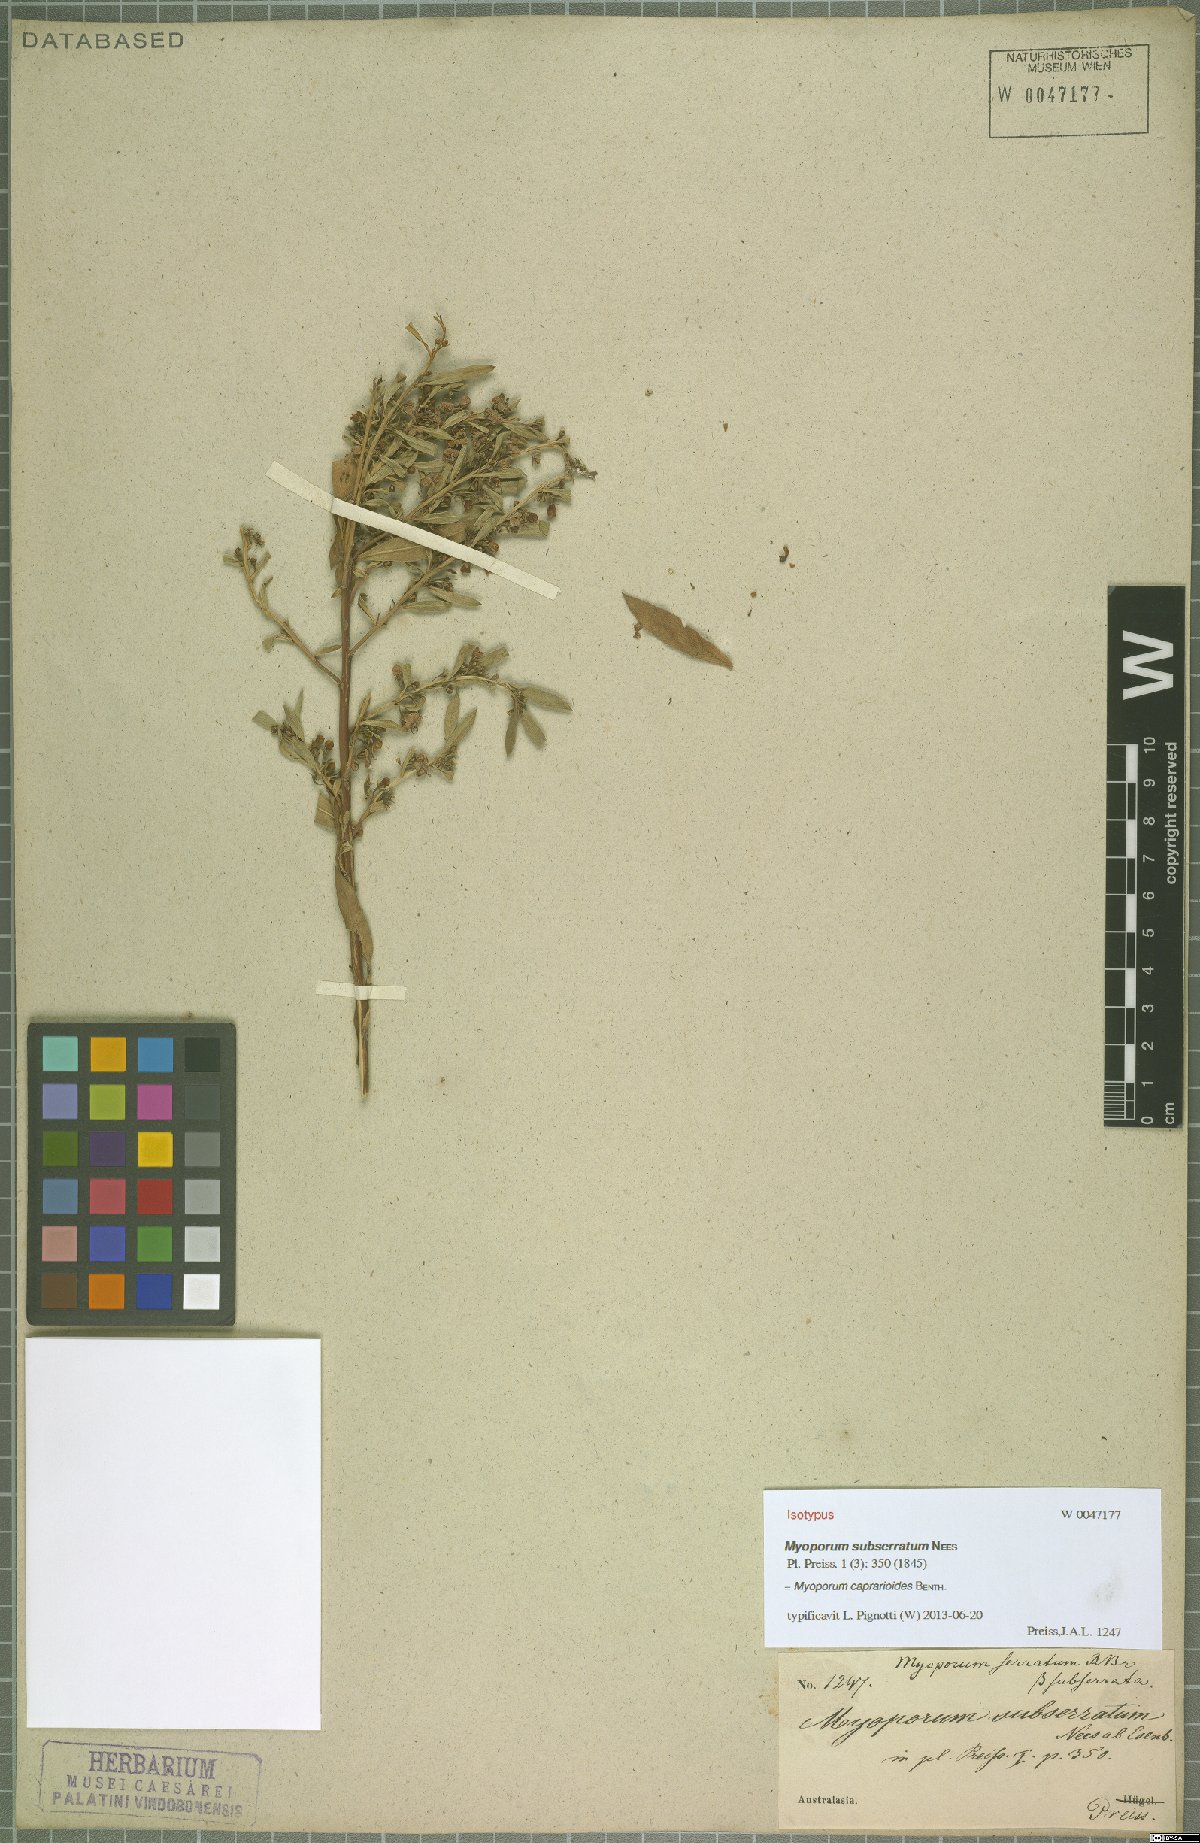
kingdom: Plantae
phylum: Tracheophyta
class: Magnoliopsida
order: Lamiales
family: Scrophulariaceae
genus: Myoporum
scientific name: Myoporum caprarioides
